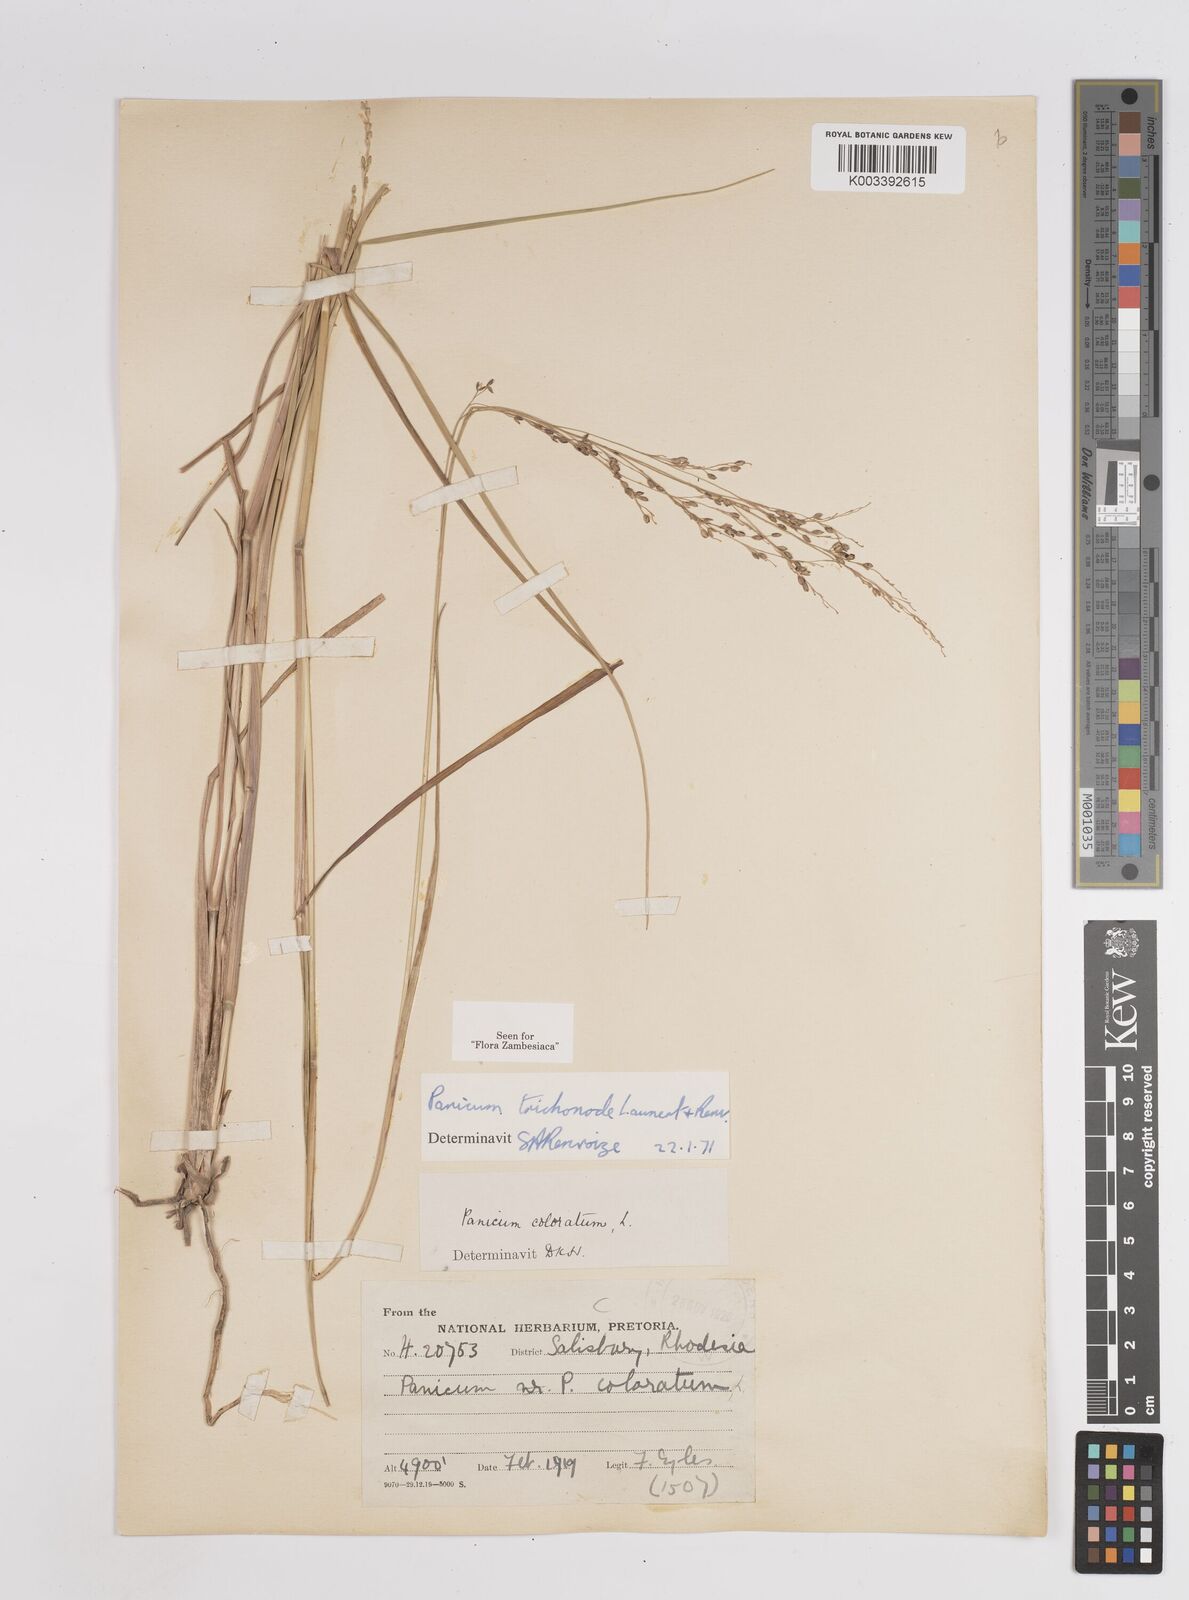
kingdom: Plantae
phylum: Tracheophyta
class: Liliopsida
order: Poales
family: Poaceae
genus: Panicum
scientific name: Panicum trichonode
